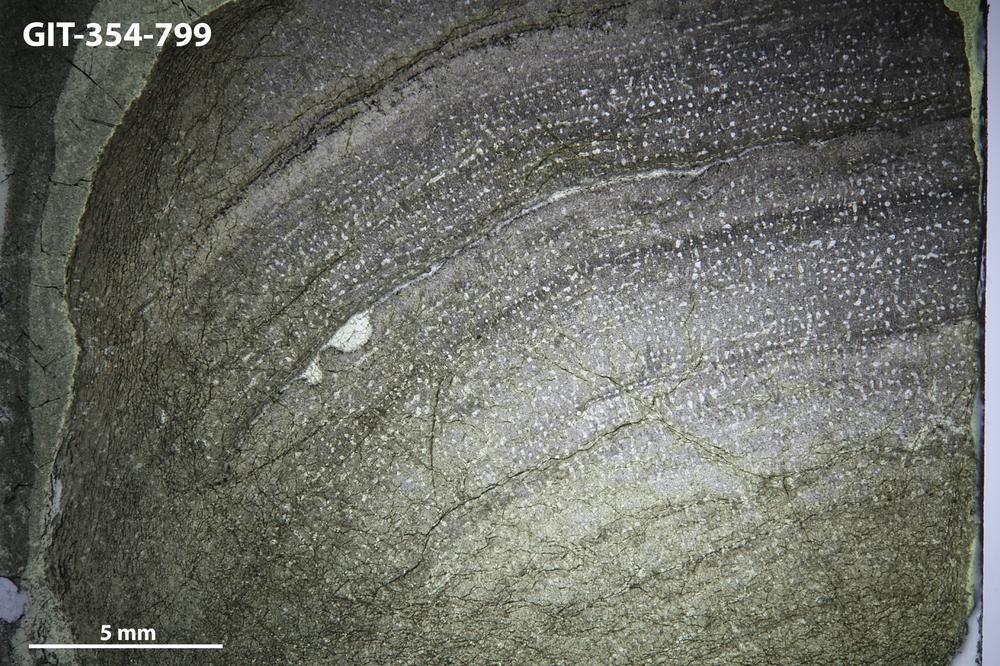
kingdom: Animalia
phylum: Porifera
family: Stromatoporidae
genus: Parallelostroma
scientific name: Parallelostroma
